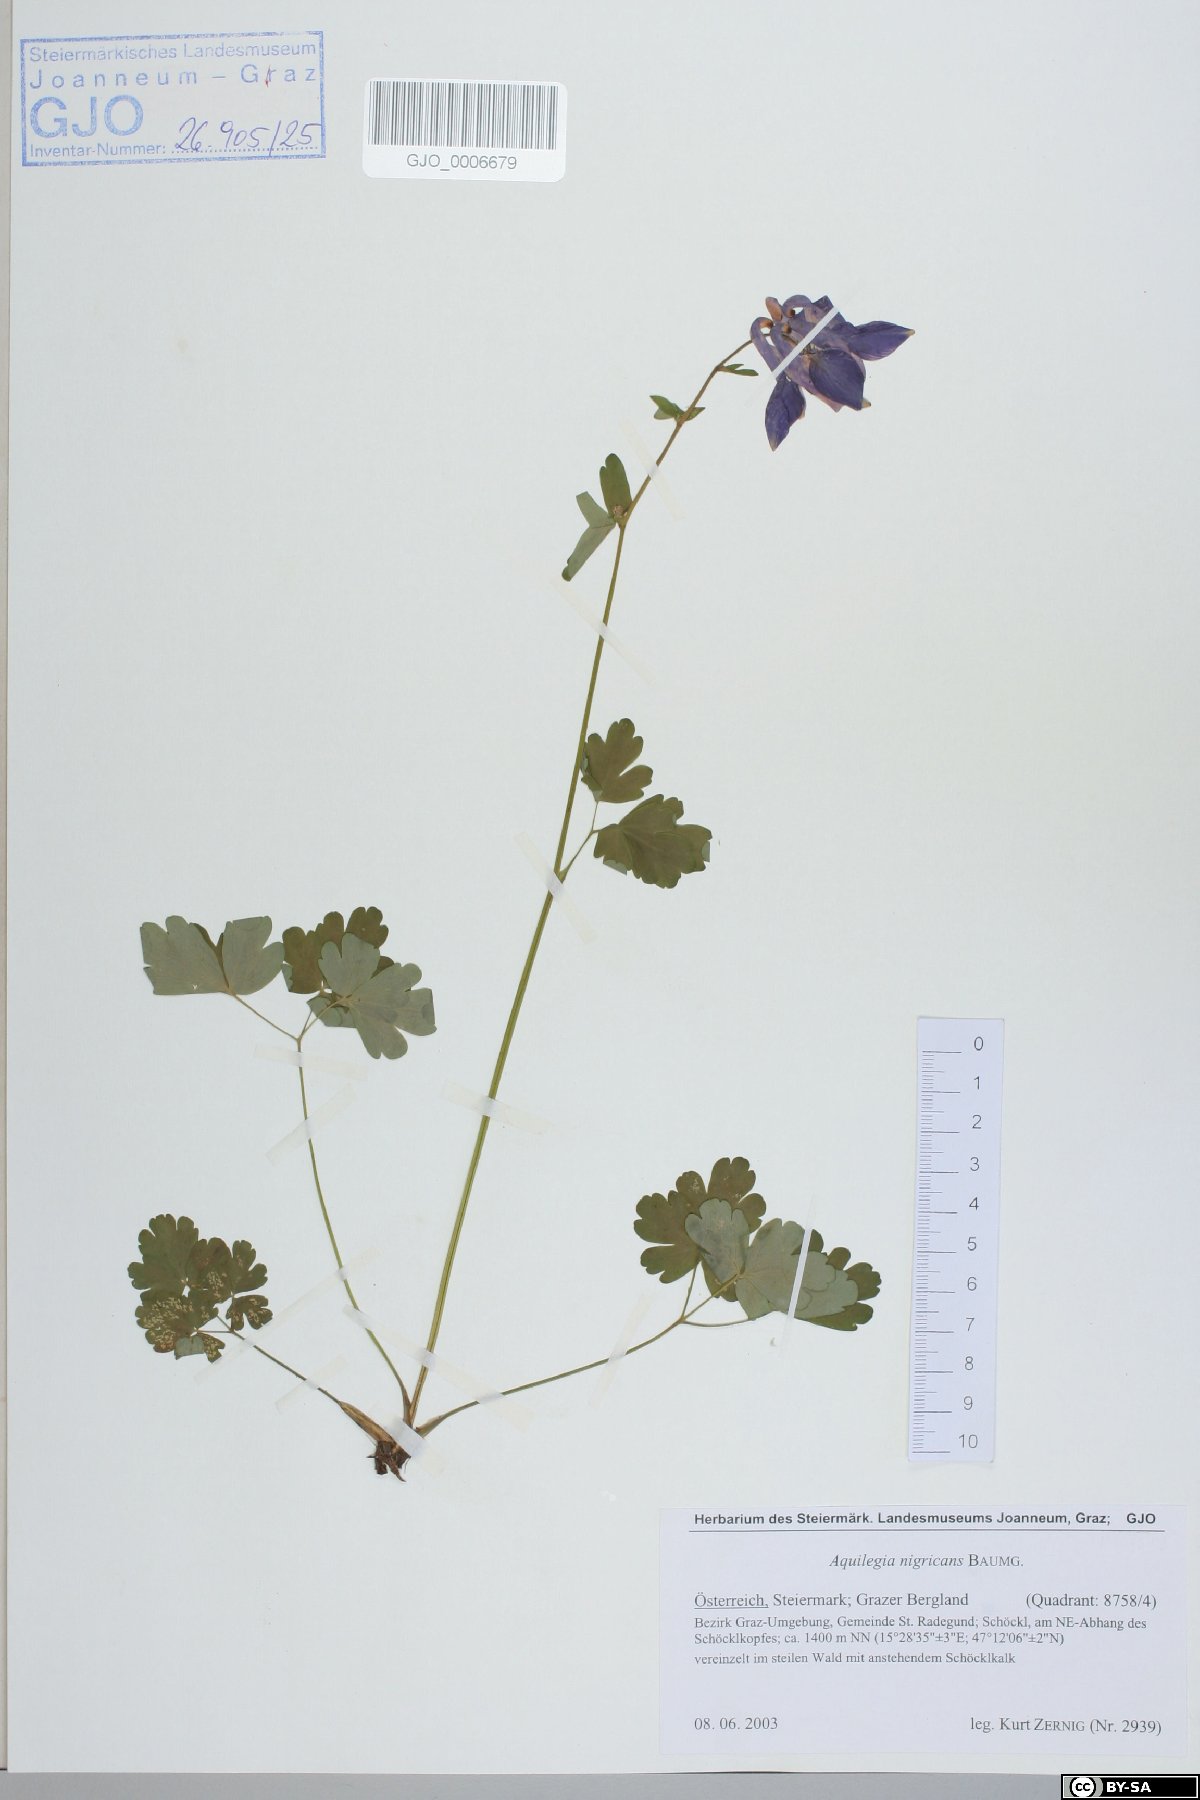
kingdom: Plantae
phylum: Tracheophyta
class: Magnoliopsida
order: Ranunculales
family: Ranunculaceae
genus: Aquilegia
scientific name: Aquilegia nigricans
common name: Bulgarian columbine
